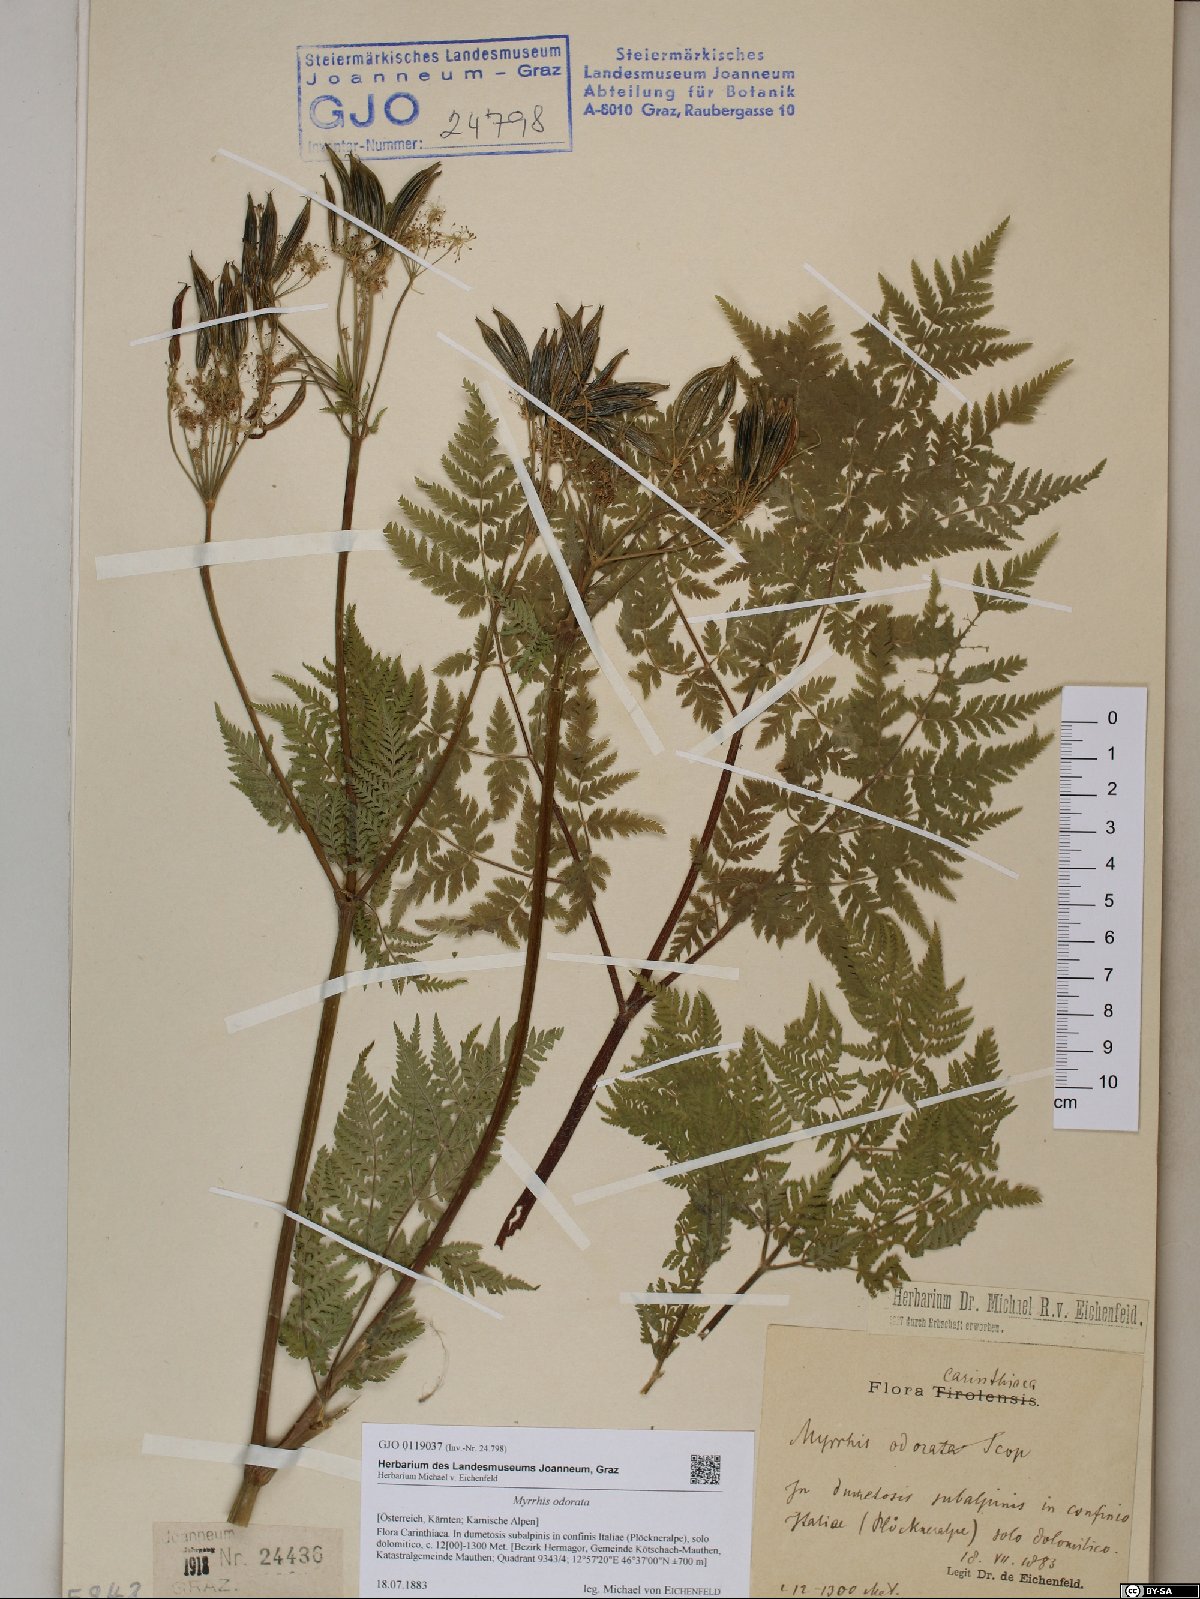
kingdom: Plantae
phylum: Tracheophyta
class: Magnoliopsida
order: Apiales
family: Apiaceae
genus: Myrrhis
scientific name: Myrrhis odorata
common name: Sweet cicely
